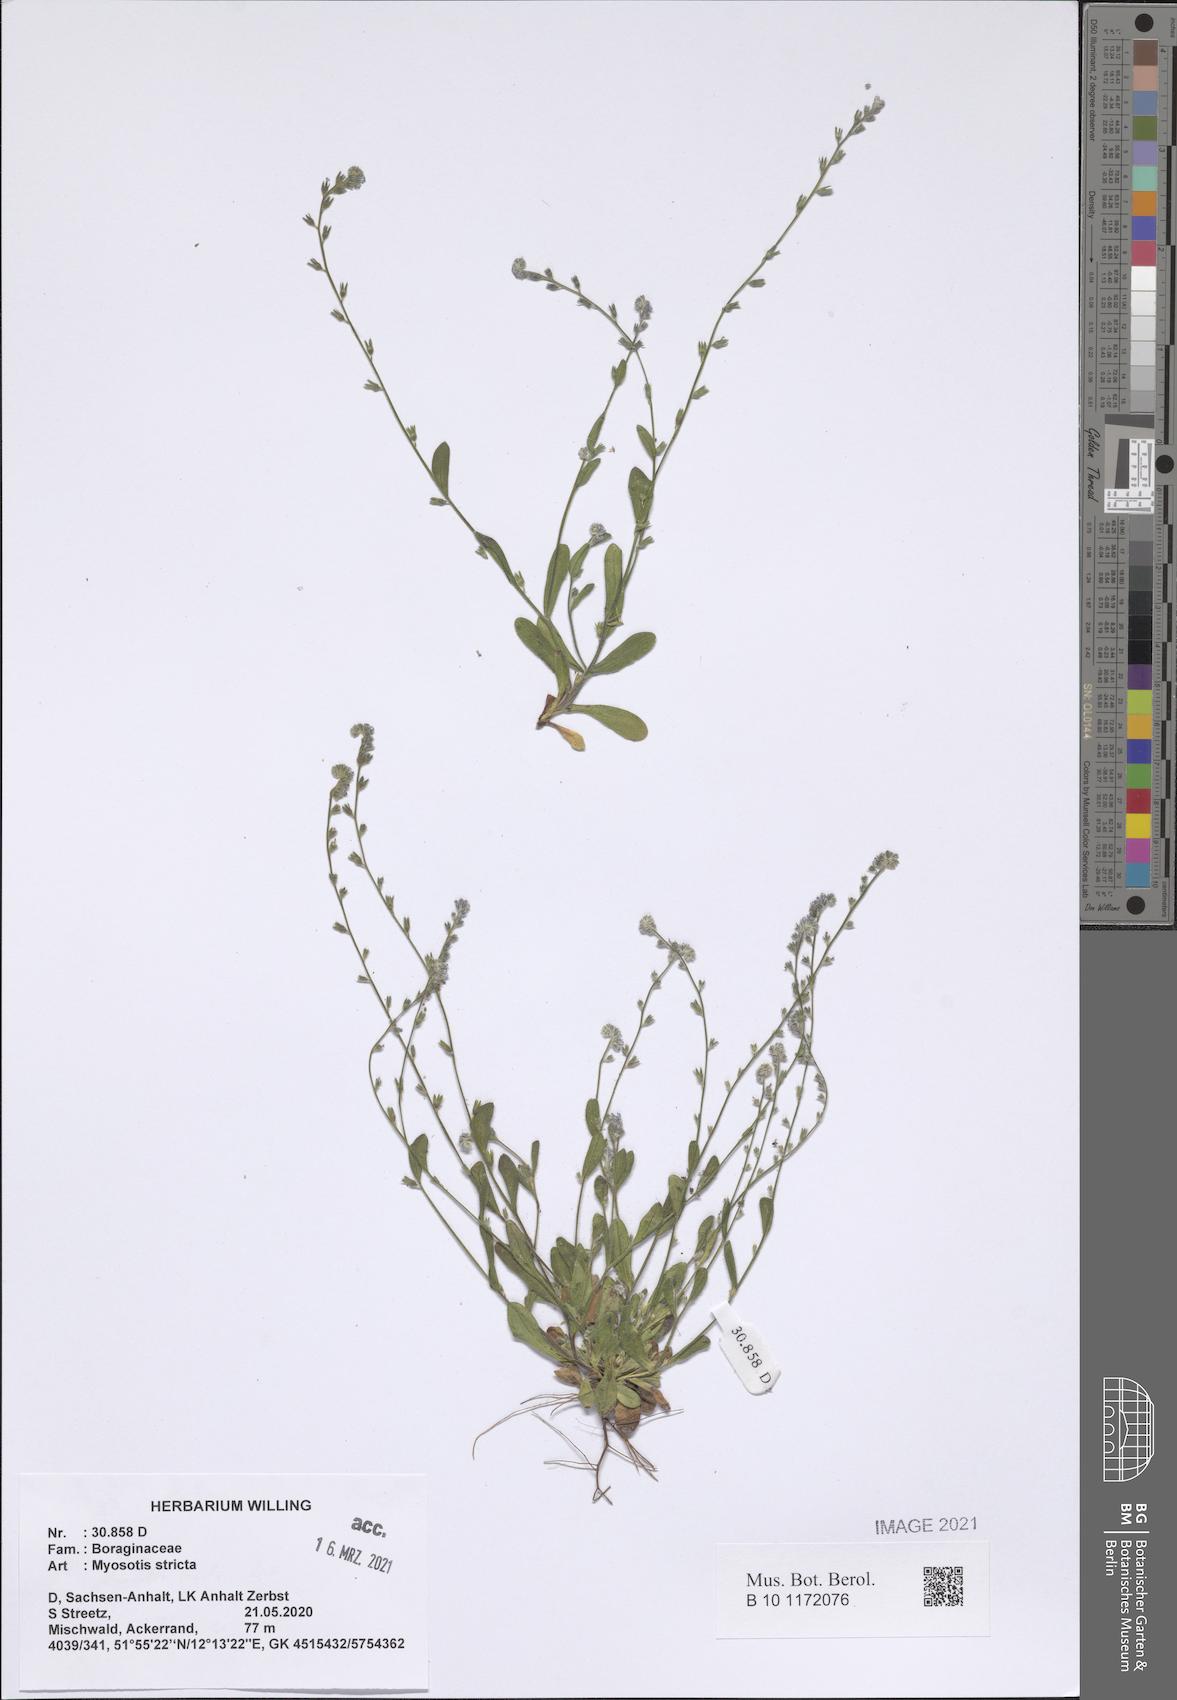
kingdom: Plantae
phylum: Tracheophyta
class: Magnoliopsida
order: Boraginales
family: Boraginaceae
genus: Myosotis
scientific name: Myosotis stricta
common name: Strict forget-me-not
